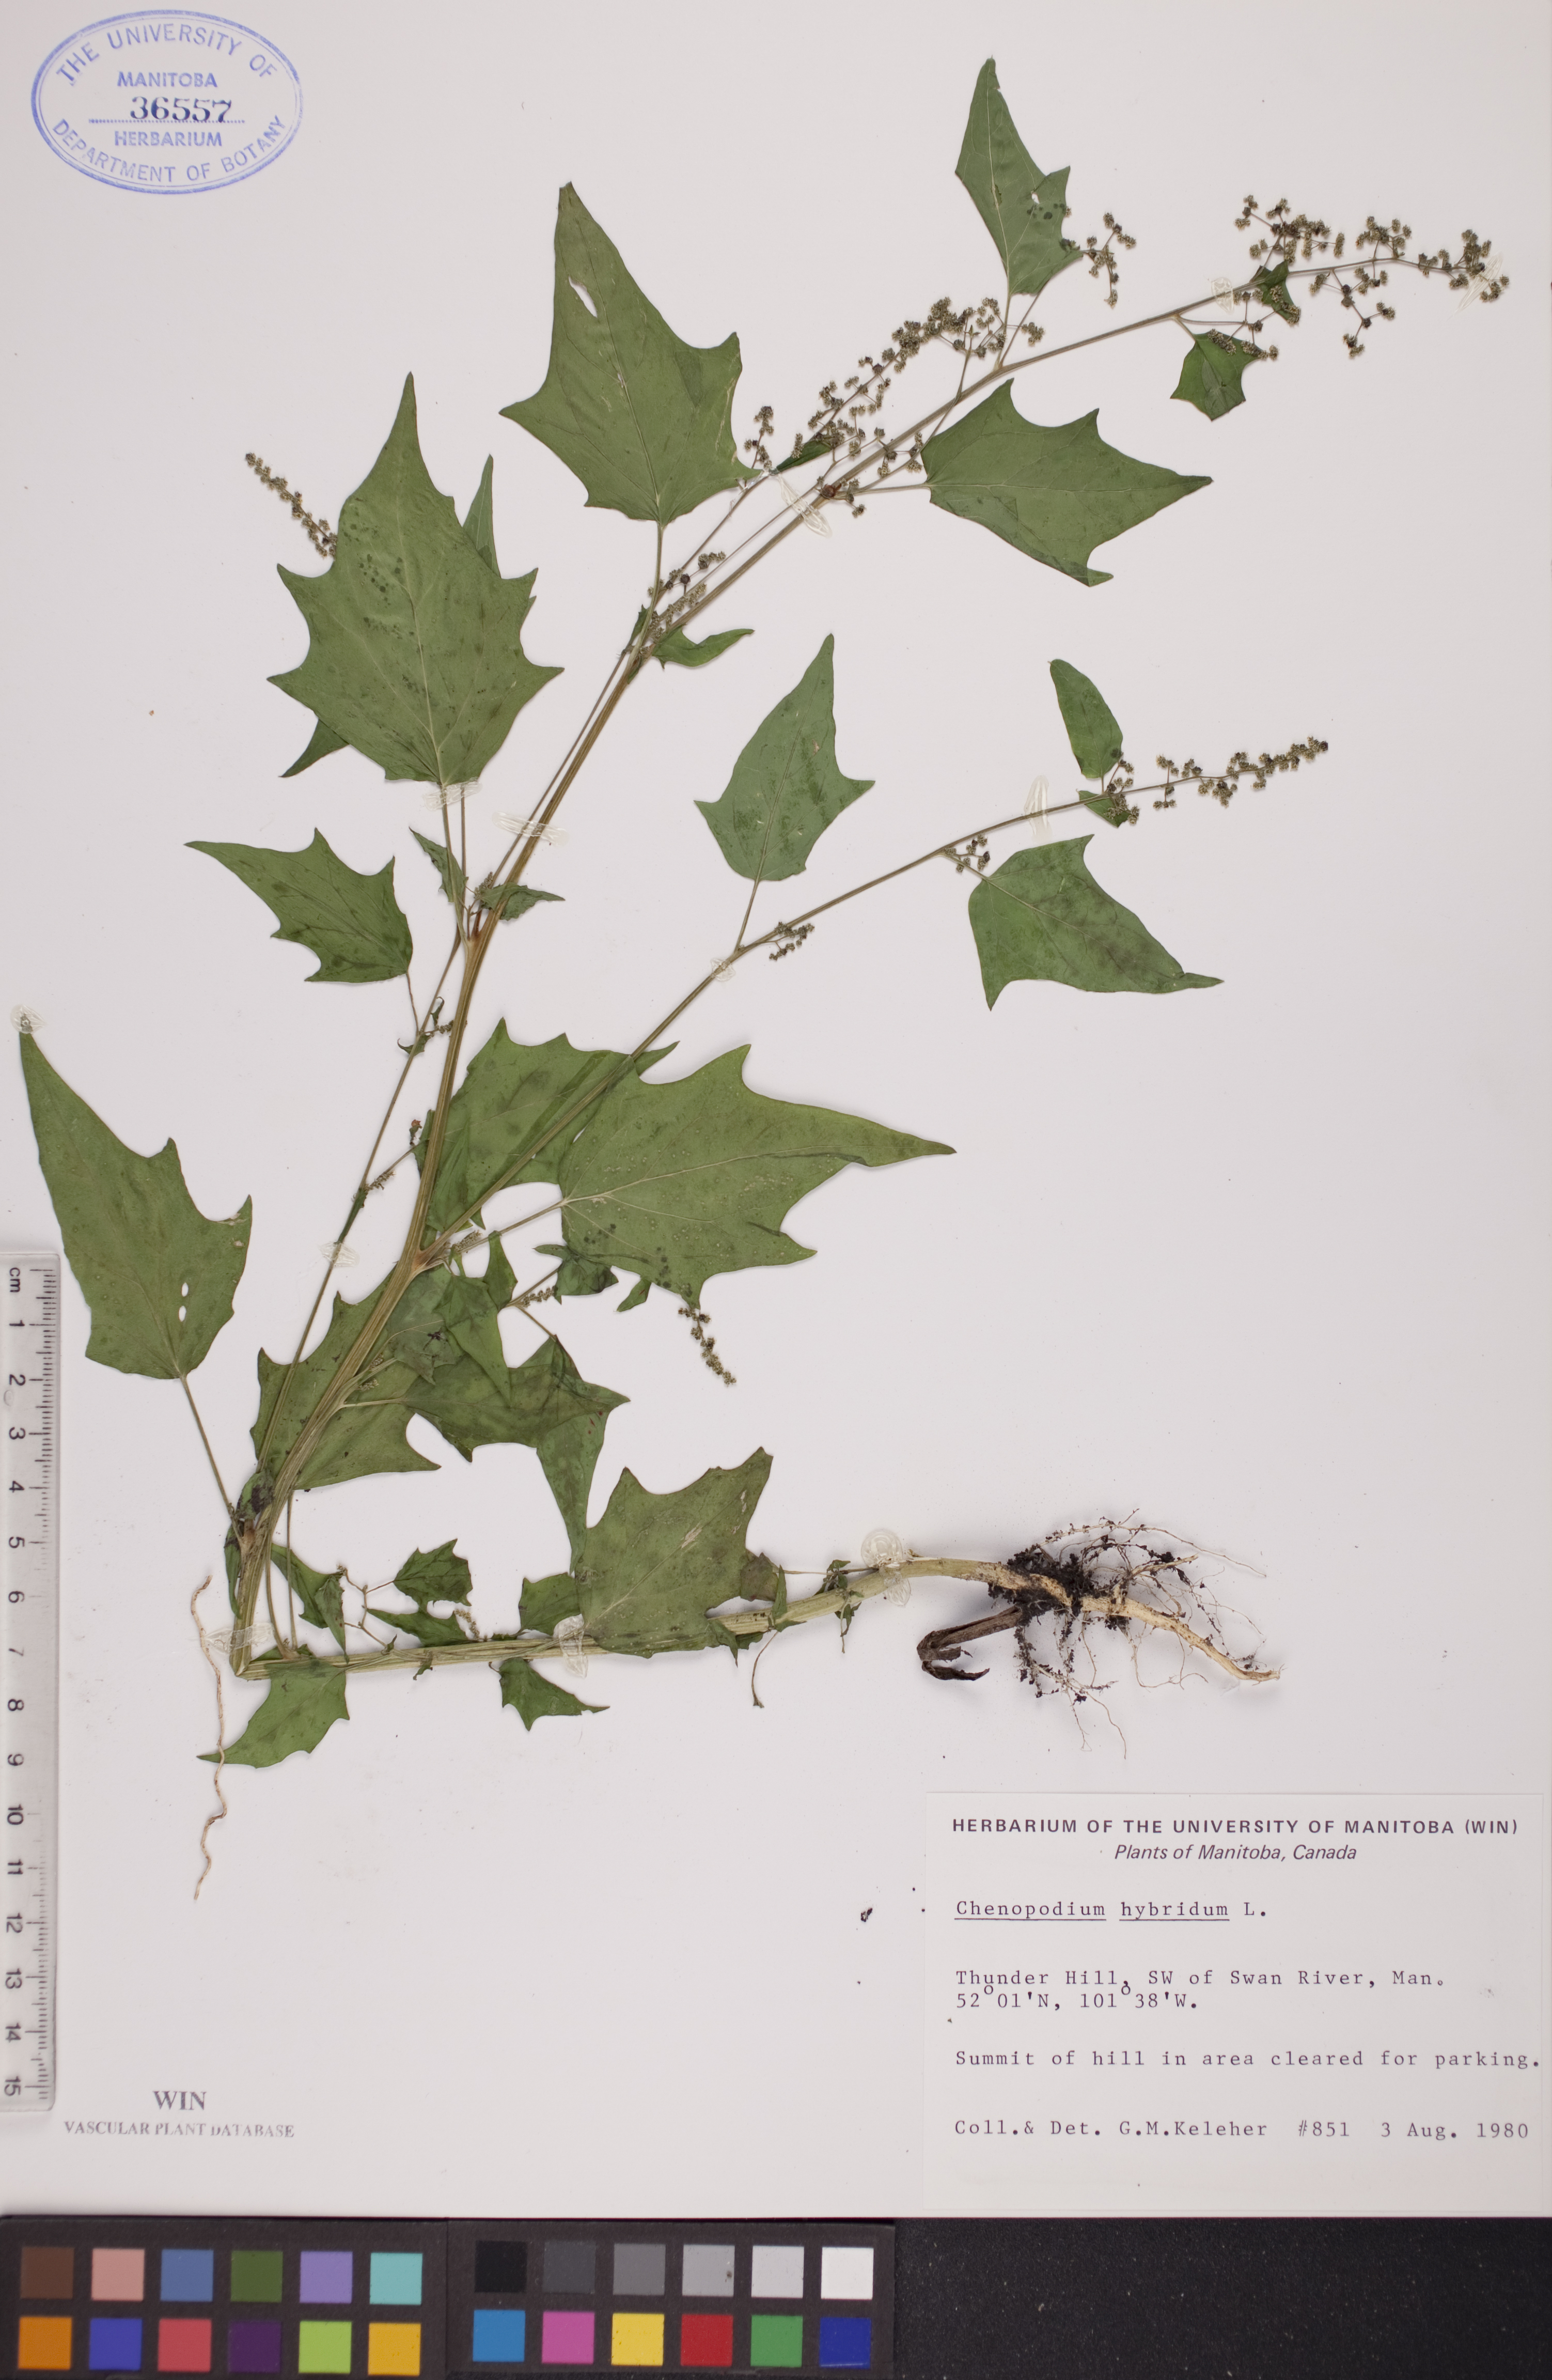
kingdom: Plantae
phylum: Tracheophyta
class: Magnoliopsida
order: Caryophyllales
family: Amaranthaceae
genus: Chenopodiastrum
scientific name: Chenopodiastrum hybridum
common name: Mapleleaf goosefoot
